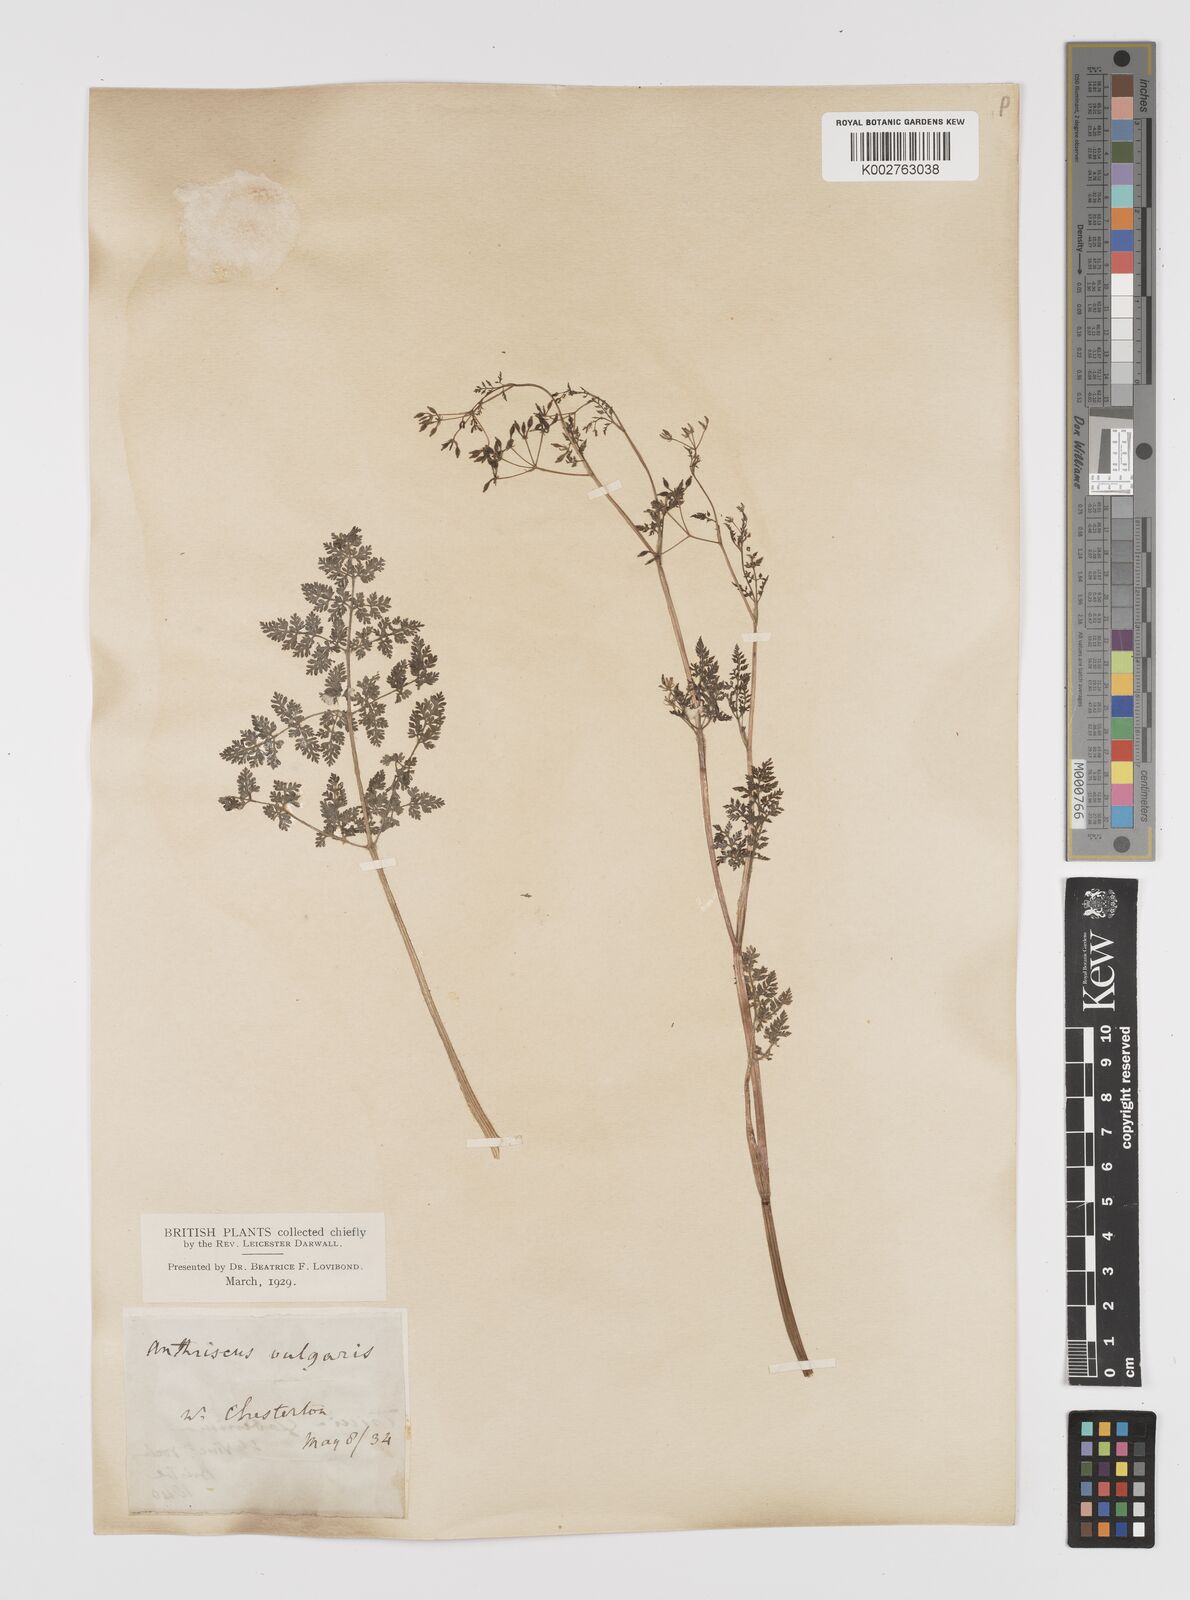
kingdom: Plantae
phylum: Tracheophyta
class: Magnoliopsida
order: Apiales
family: Apiaceae
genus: Anthriscus
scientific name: Anthriscus caucalis
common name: Bur chervil
